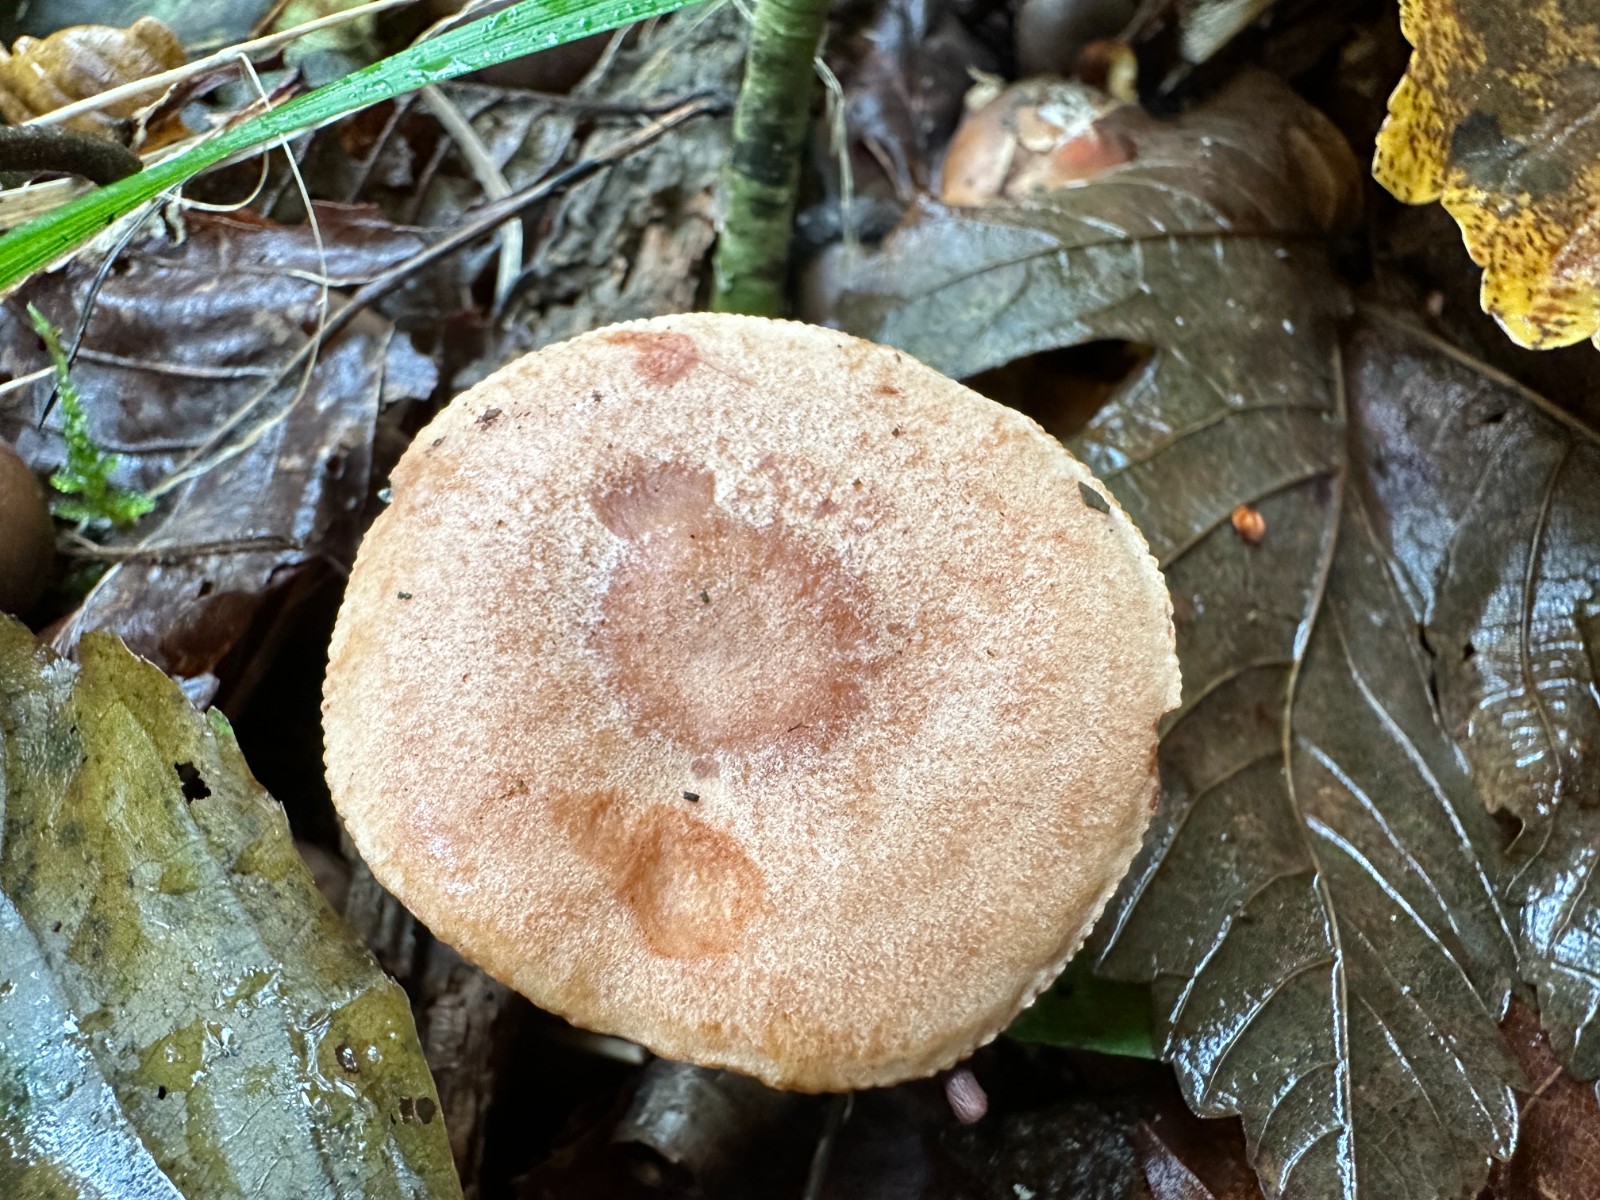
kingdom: Fungi
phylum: Basidiomycota
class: Agaricomycetes
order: Russulales
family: Russulaceae
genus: Lactarius
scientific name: Lactarius quietus
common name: ege-mælkehat
